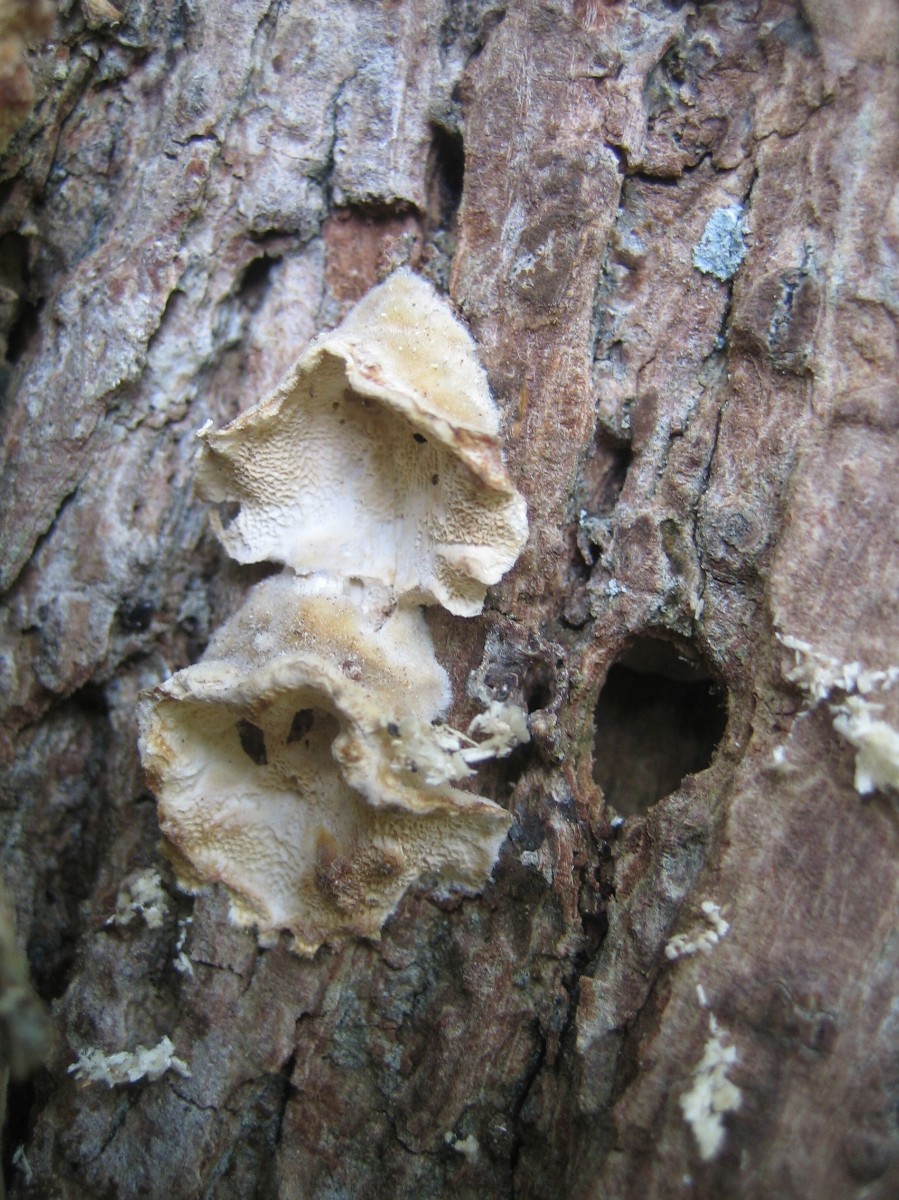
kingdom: Fungi
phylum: Basidiomycota
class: Agaricomycetes
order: Polyporales
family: Polyporaceae
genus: Trametes
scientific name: Trametes
